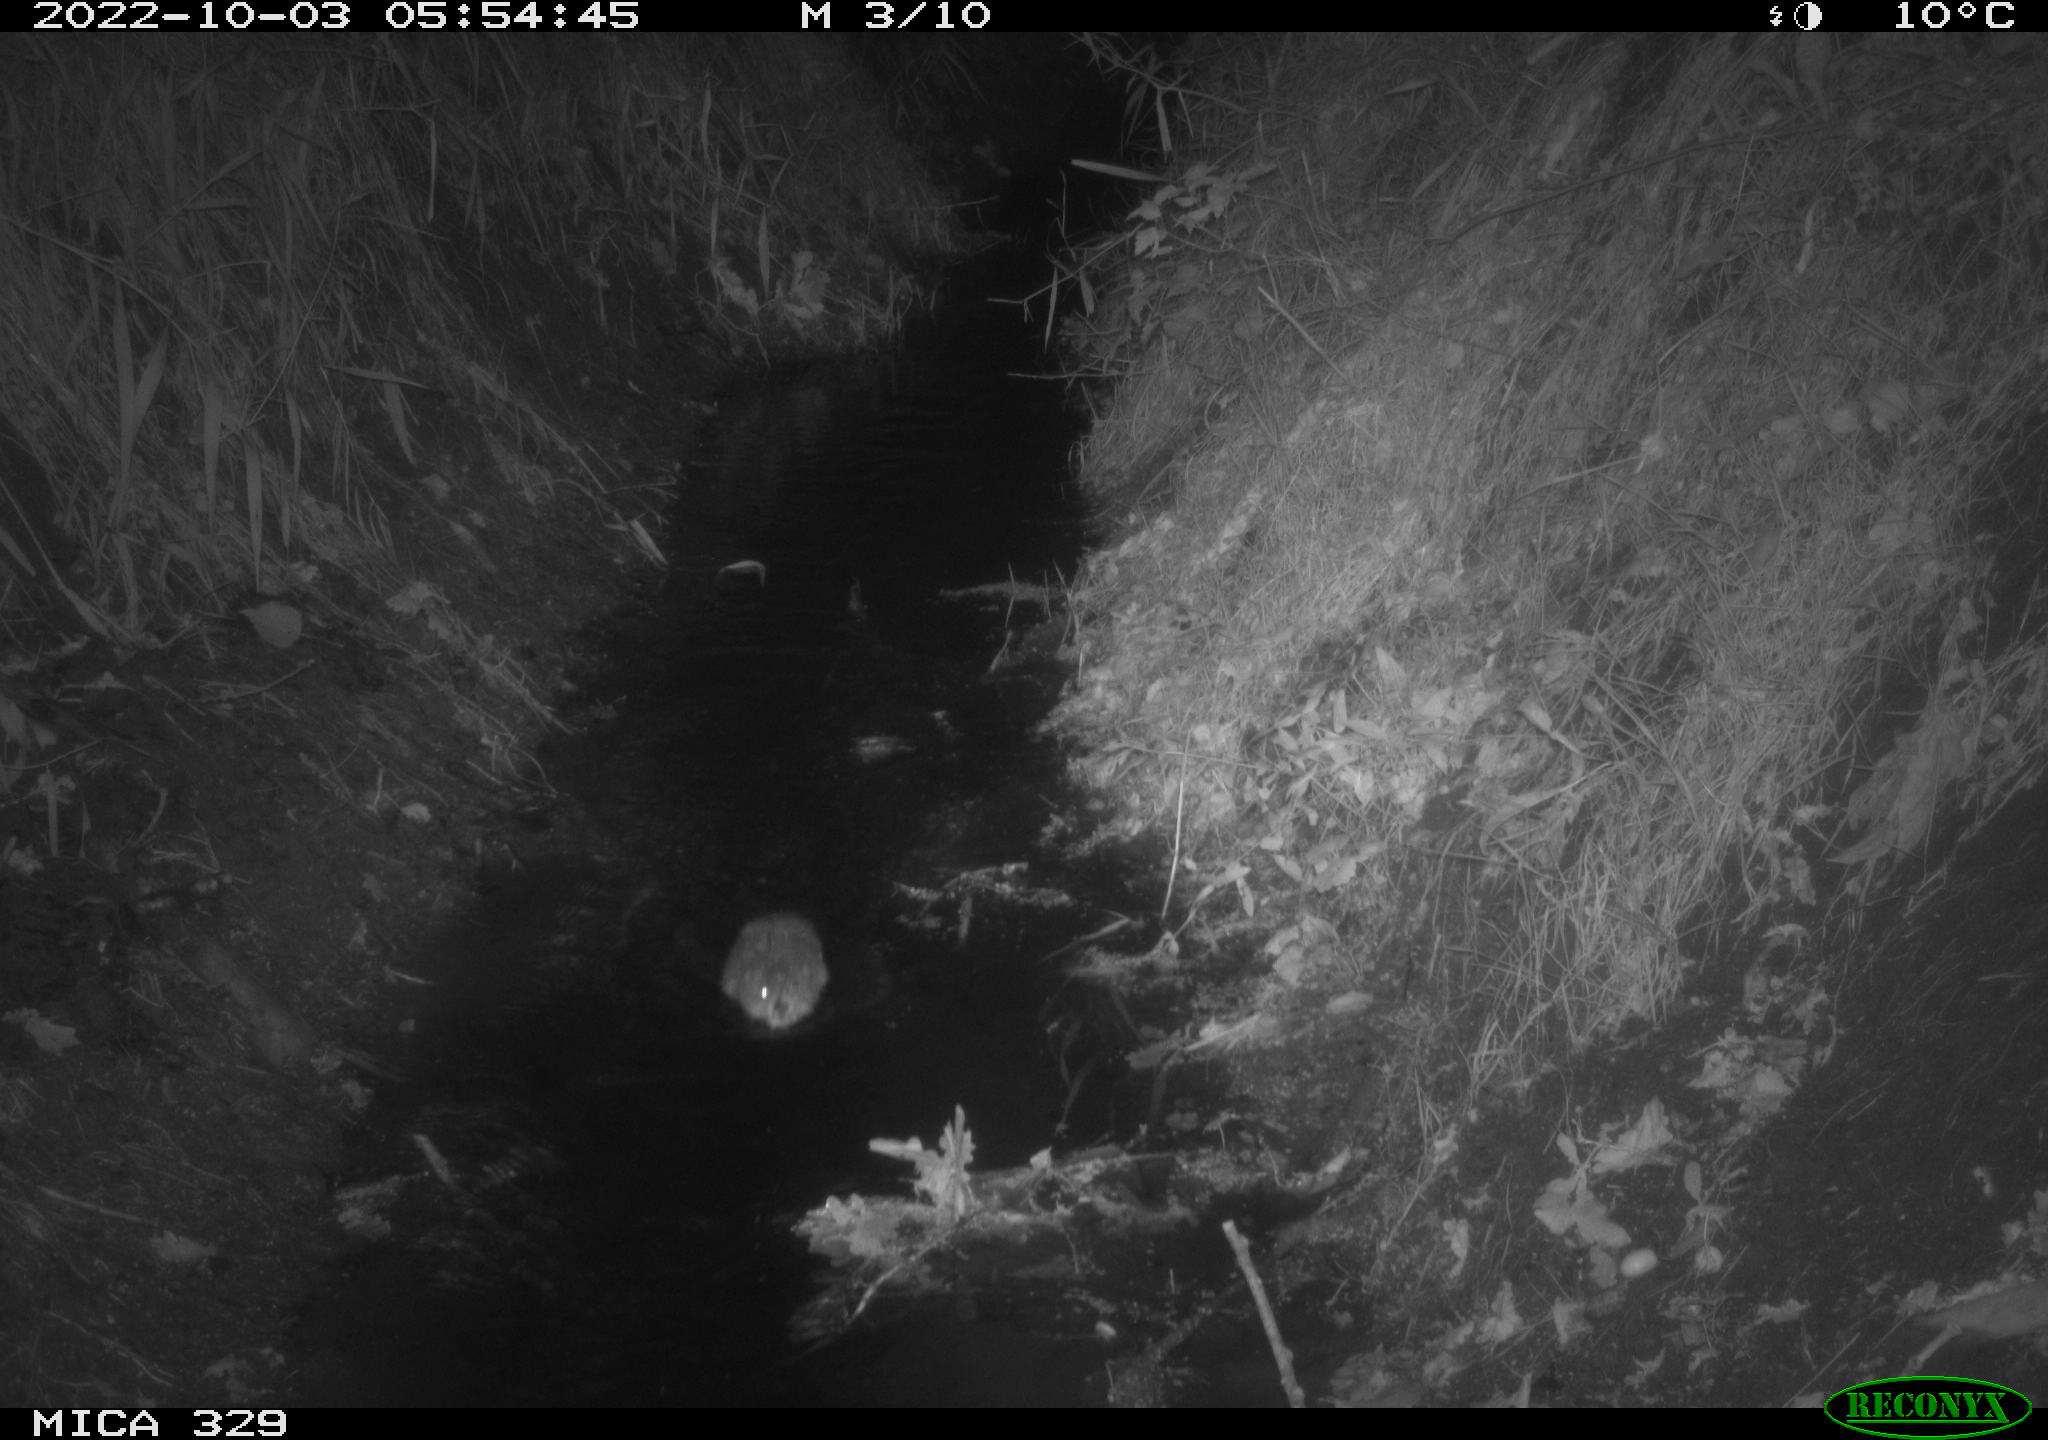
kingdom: Animalia
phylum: Chordata
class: Mammalia
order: Rodentia
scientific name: Rodentia
